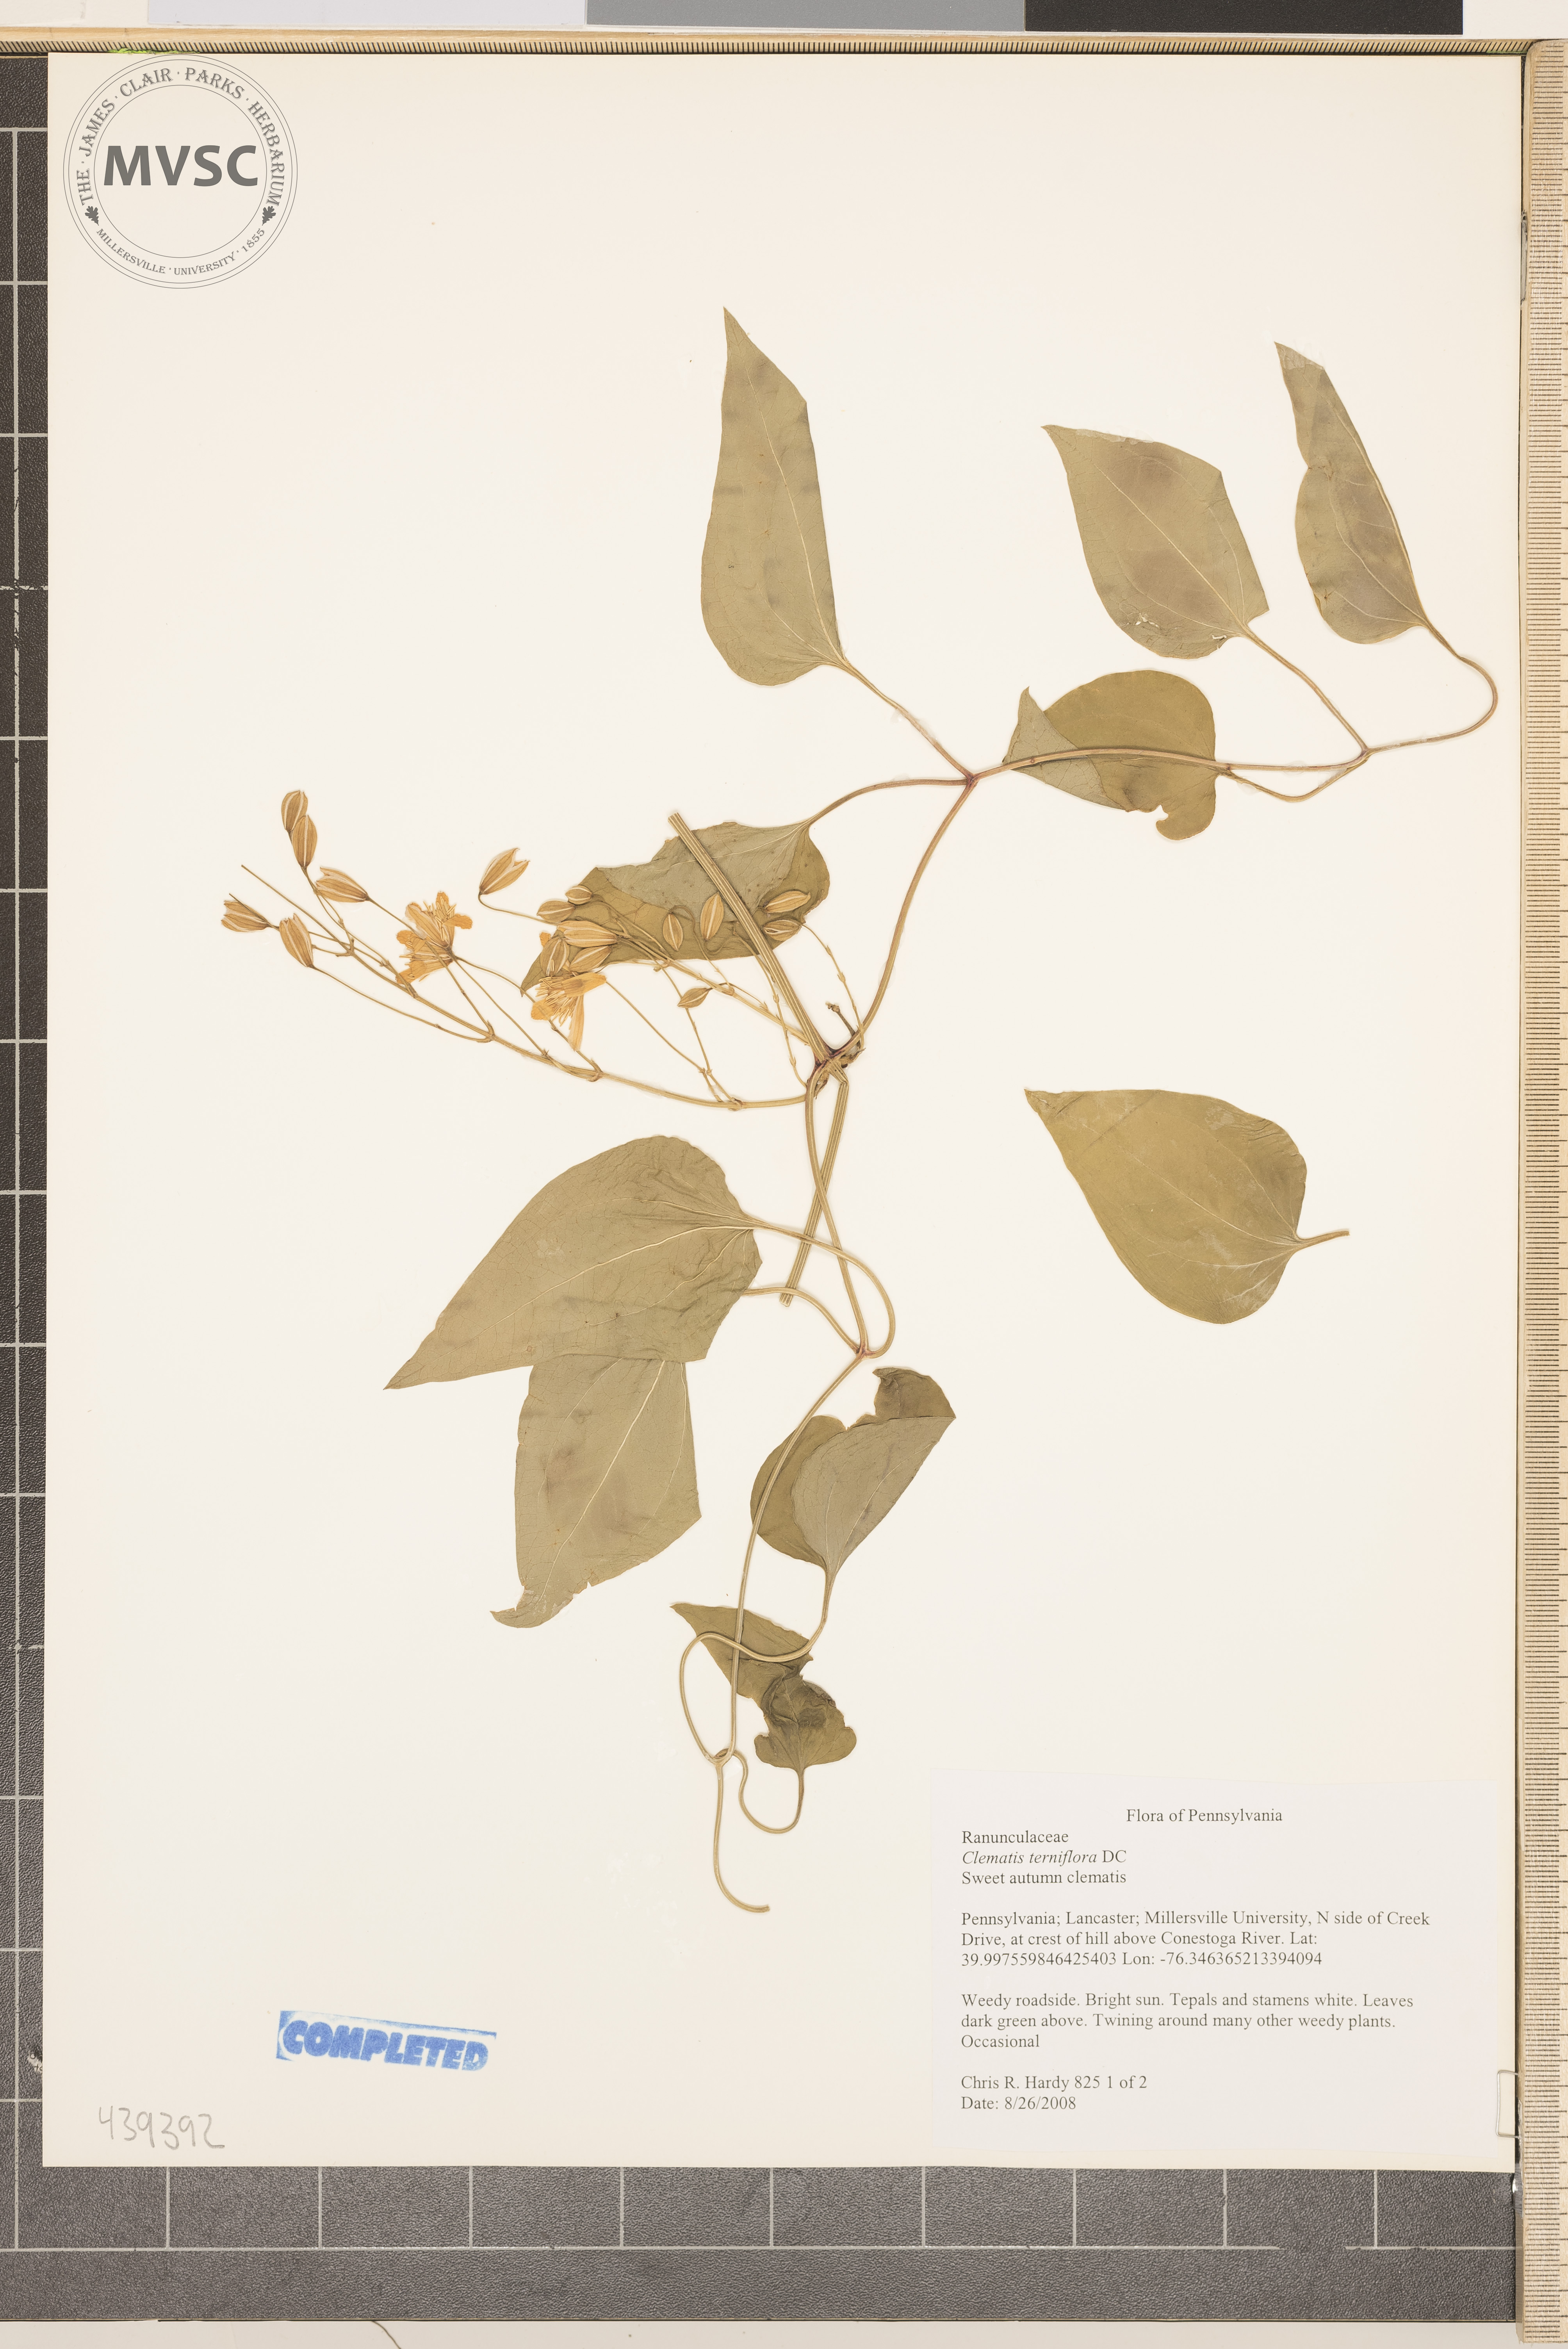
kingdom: Plantae
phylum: Tracheophyta
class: Magnoliopsida
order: Ranunculales
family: Ranunculaceae
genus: Clematis
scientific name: Clematis terniflora
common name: Sweet autumn clematis
